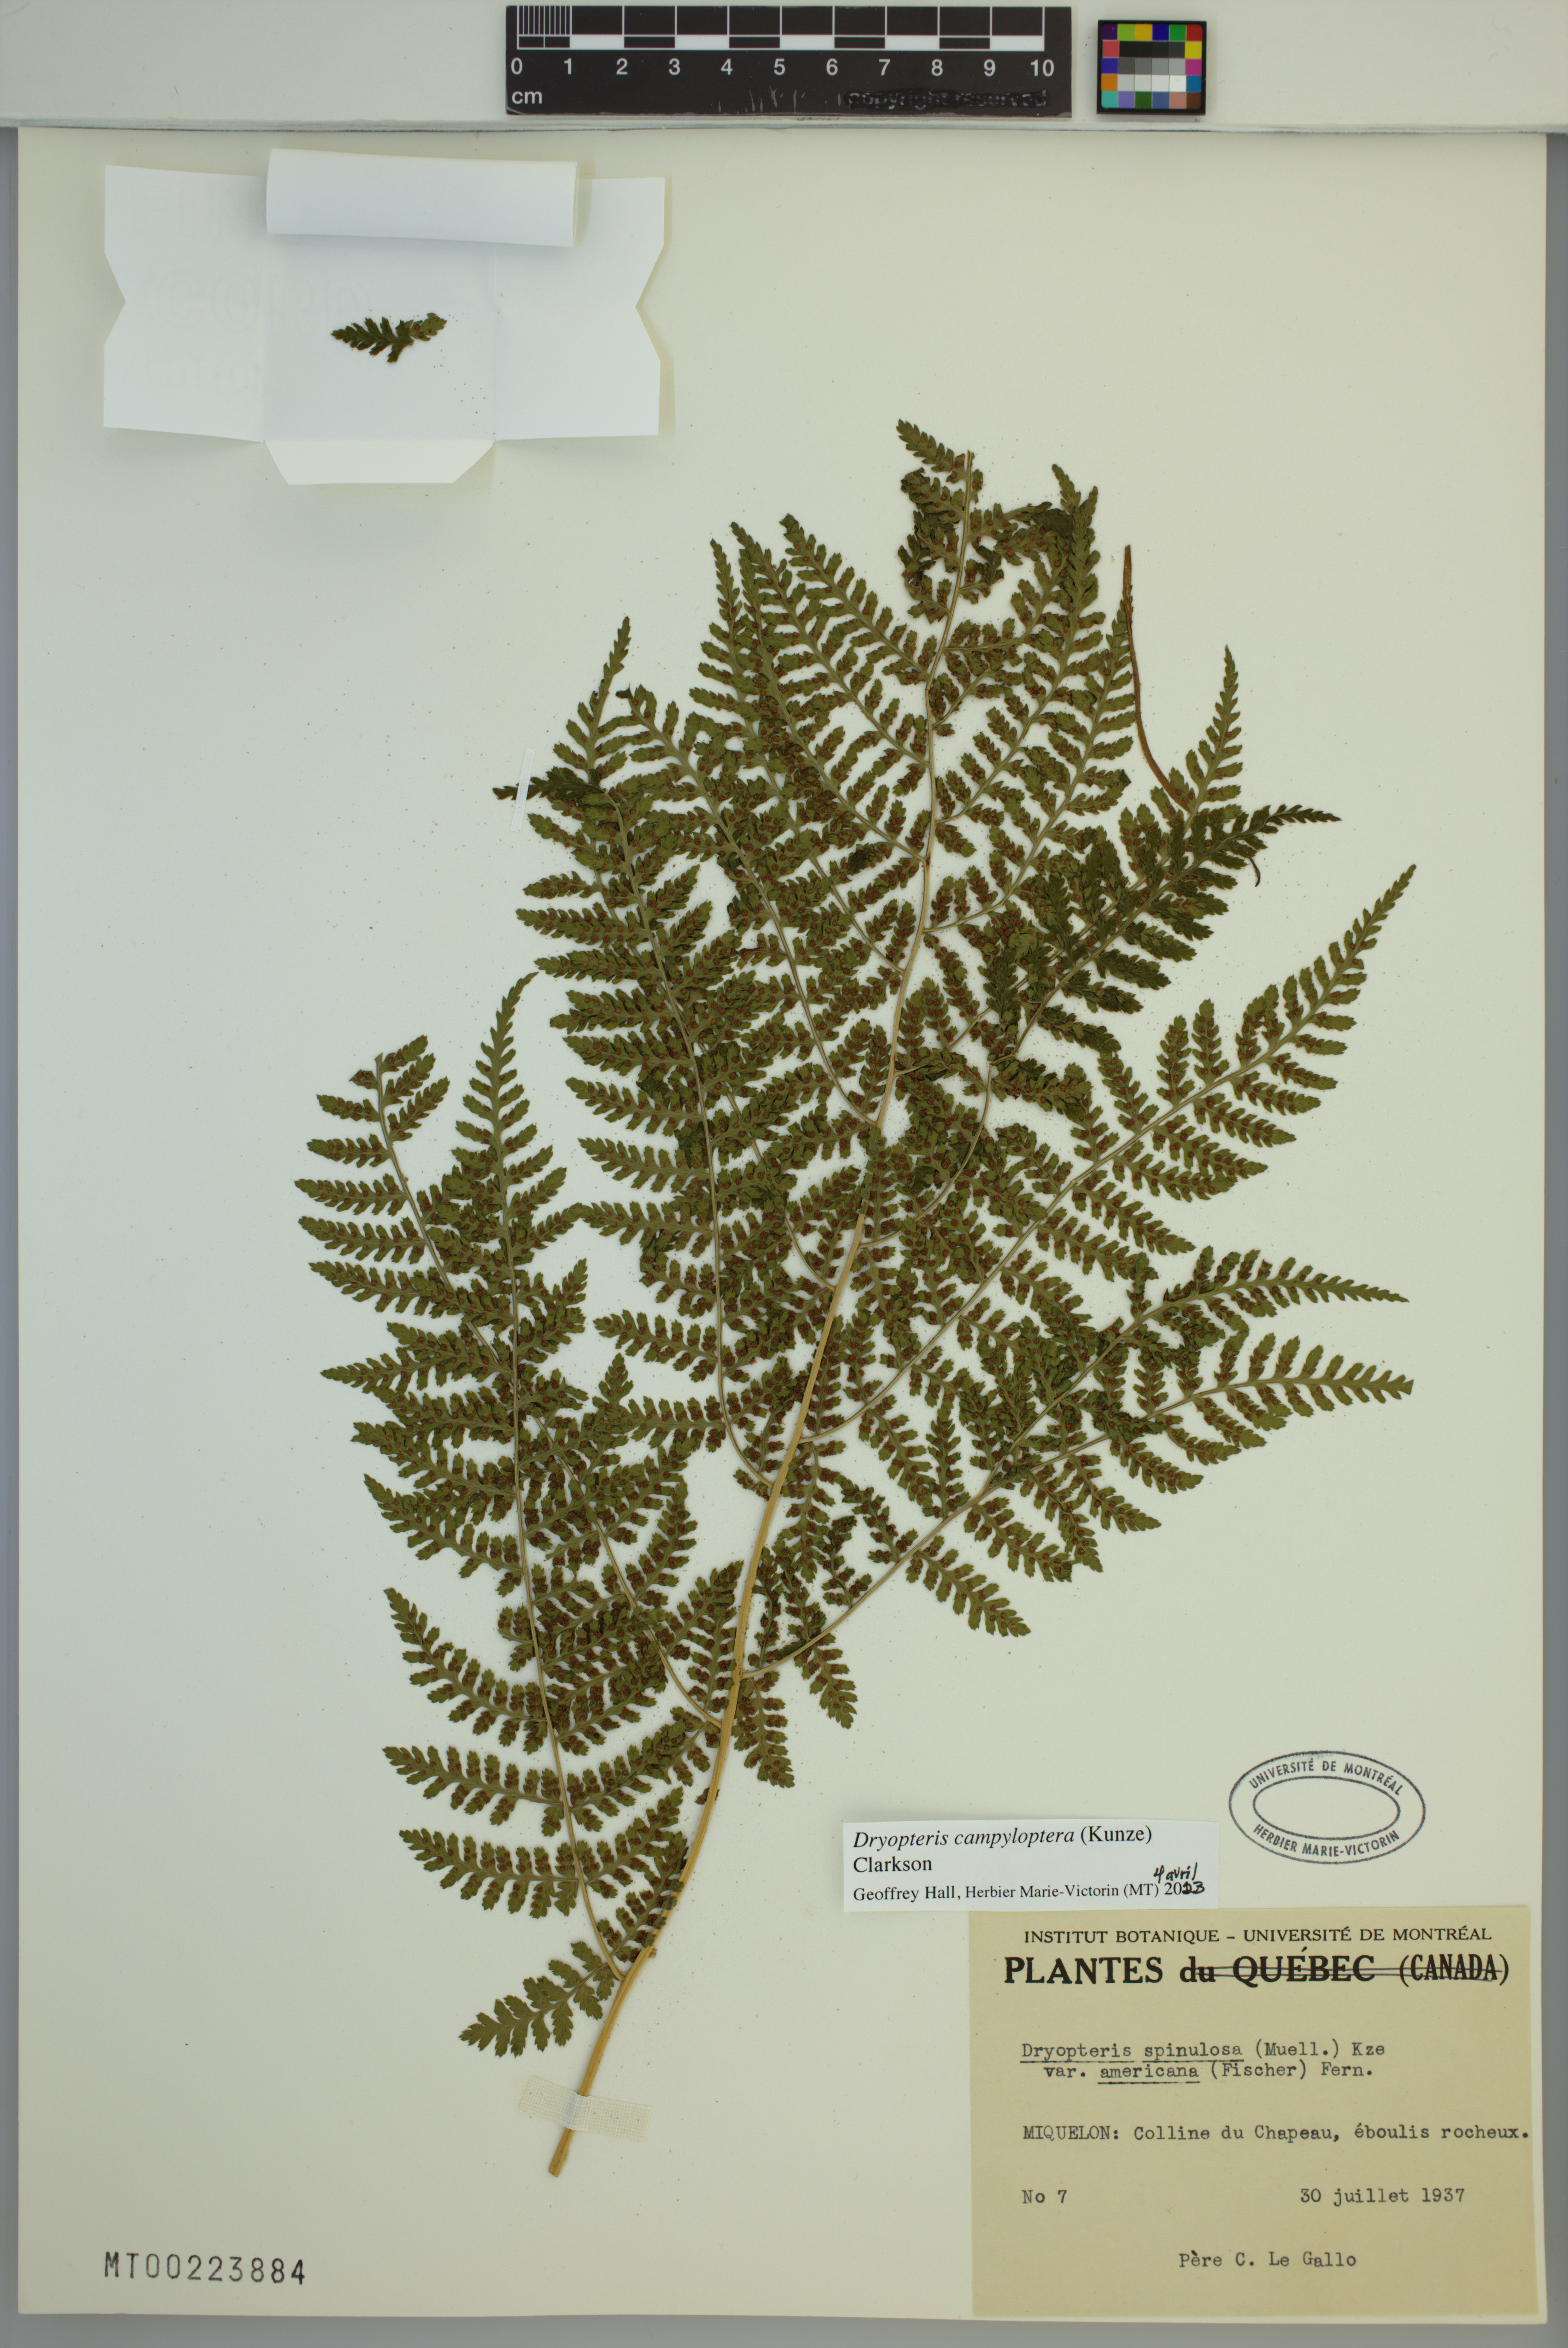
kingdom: Plantae
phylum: Tracheophyta
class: Polypodiopsida
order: Polypodiales
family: Dryopteridaceae
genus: Dryopteris
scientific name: Dryopteris campyloptera
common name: Mountain wood fern
